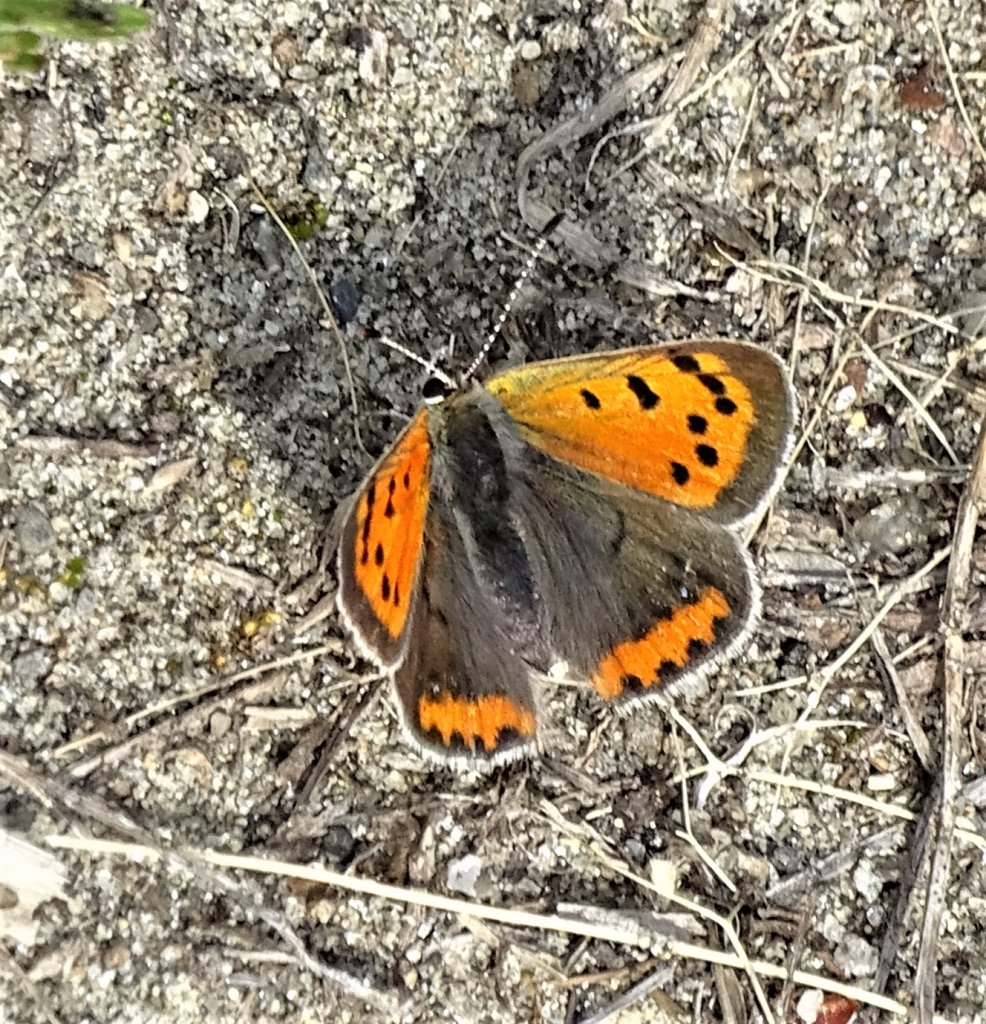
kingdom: Animalia
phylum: Arthropoda
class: Insecta
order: Lepidoptera
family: Lycaenidae
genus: Lycaena
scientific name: Lycaena phlaeas
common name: American Copper
